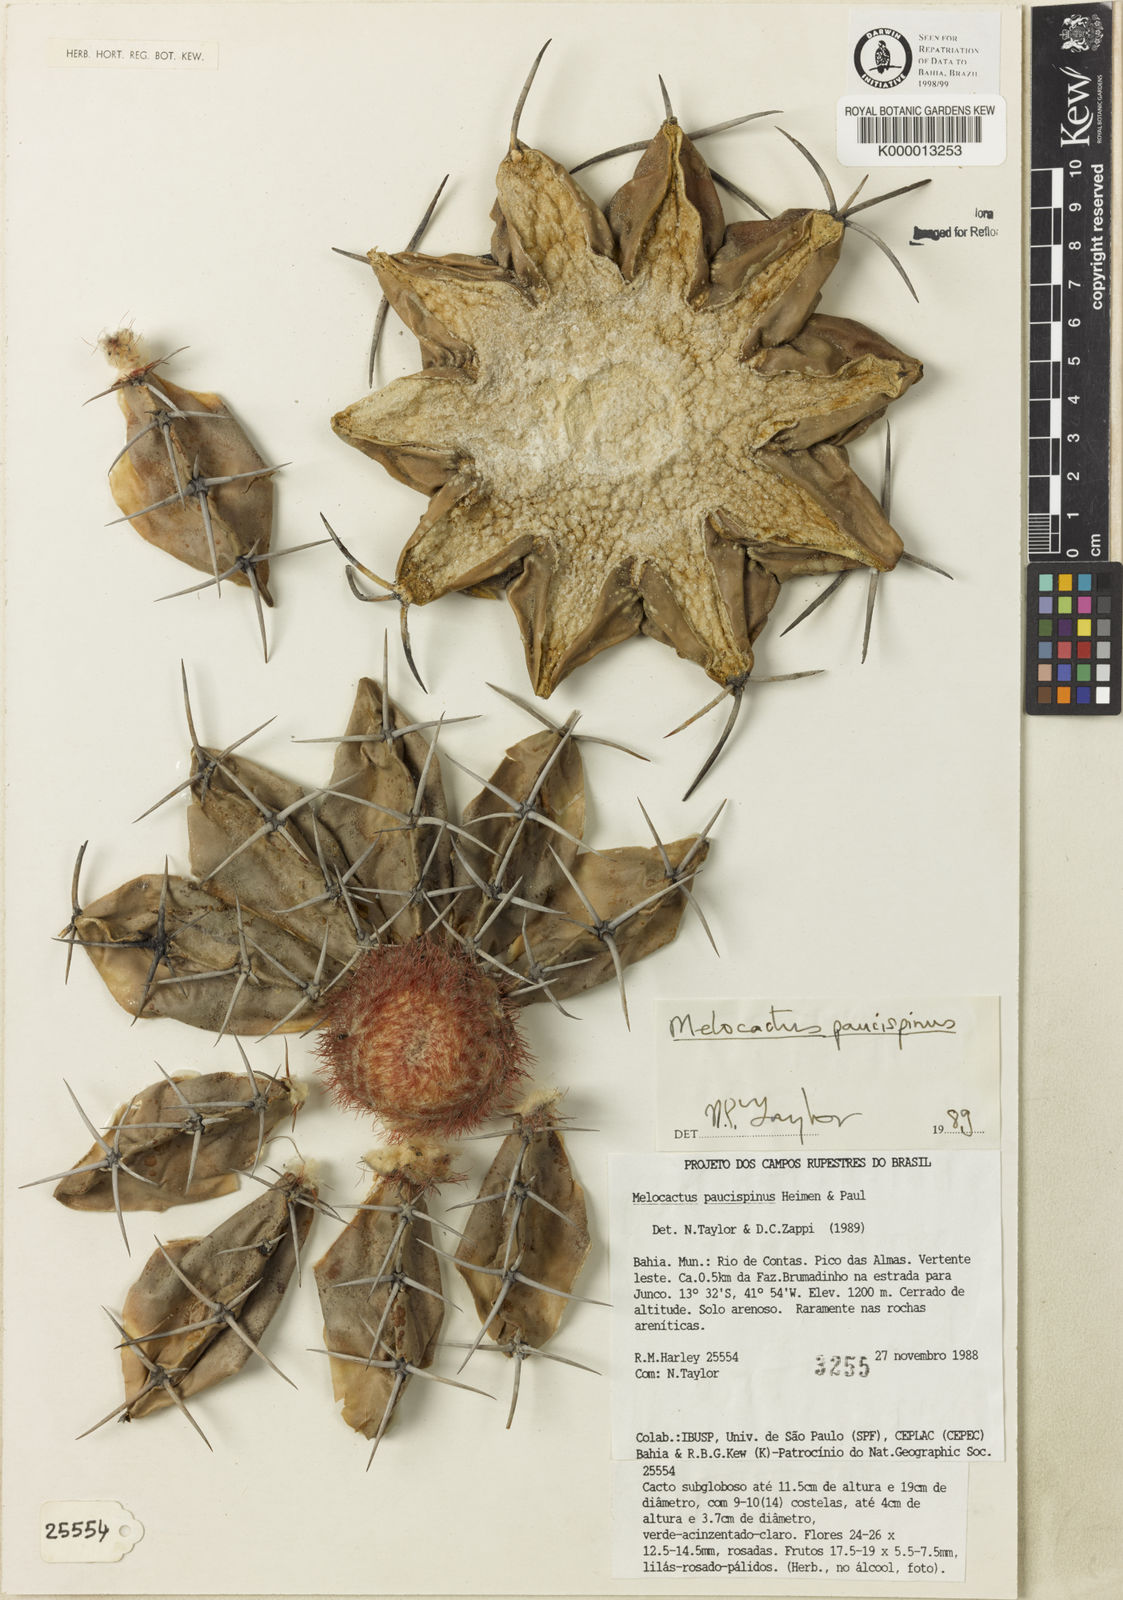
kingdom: Plantae
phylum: Tracheophyta
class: Magnoliopsida
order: Caryophyllales
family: Cactaceae
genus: Melocactus
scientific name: Melocactus paucispinus
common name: Few-spine turk's-cap cactus
